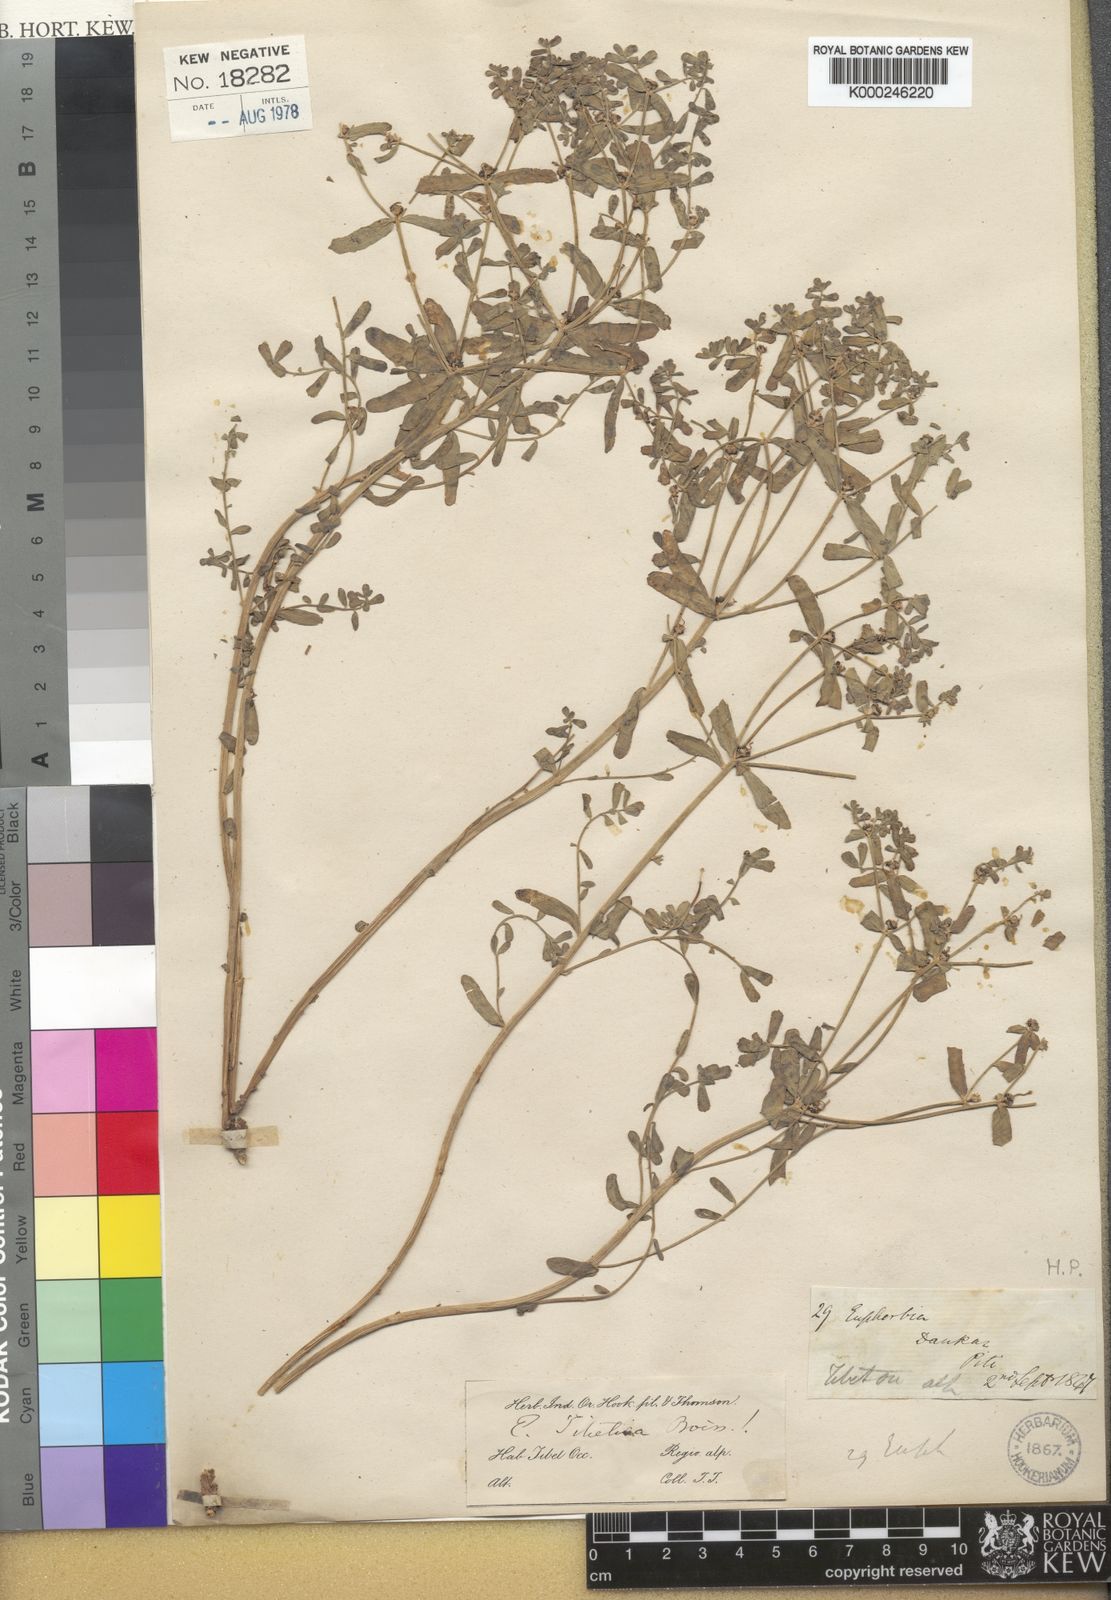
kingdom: Plantae
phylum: Tracheophyta
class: Magnoliopsida
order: Malpighiales
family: Euphorbiaceae
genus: Euphorbia
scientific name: Euphorbia tibetica
